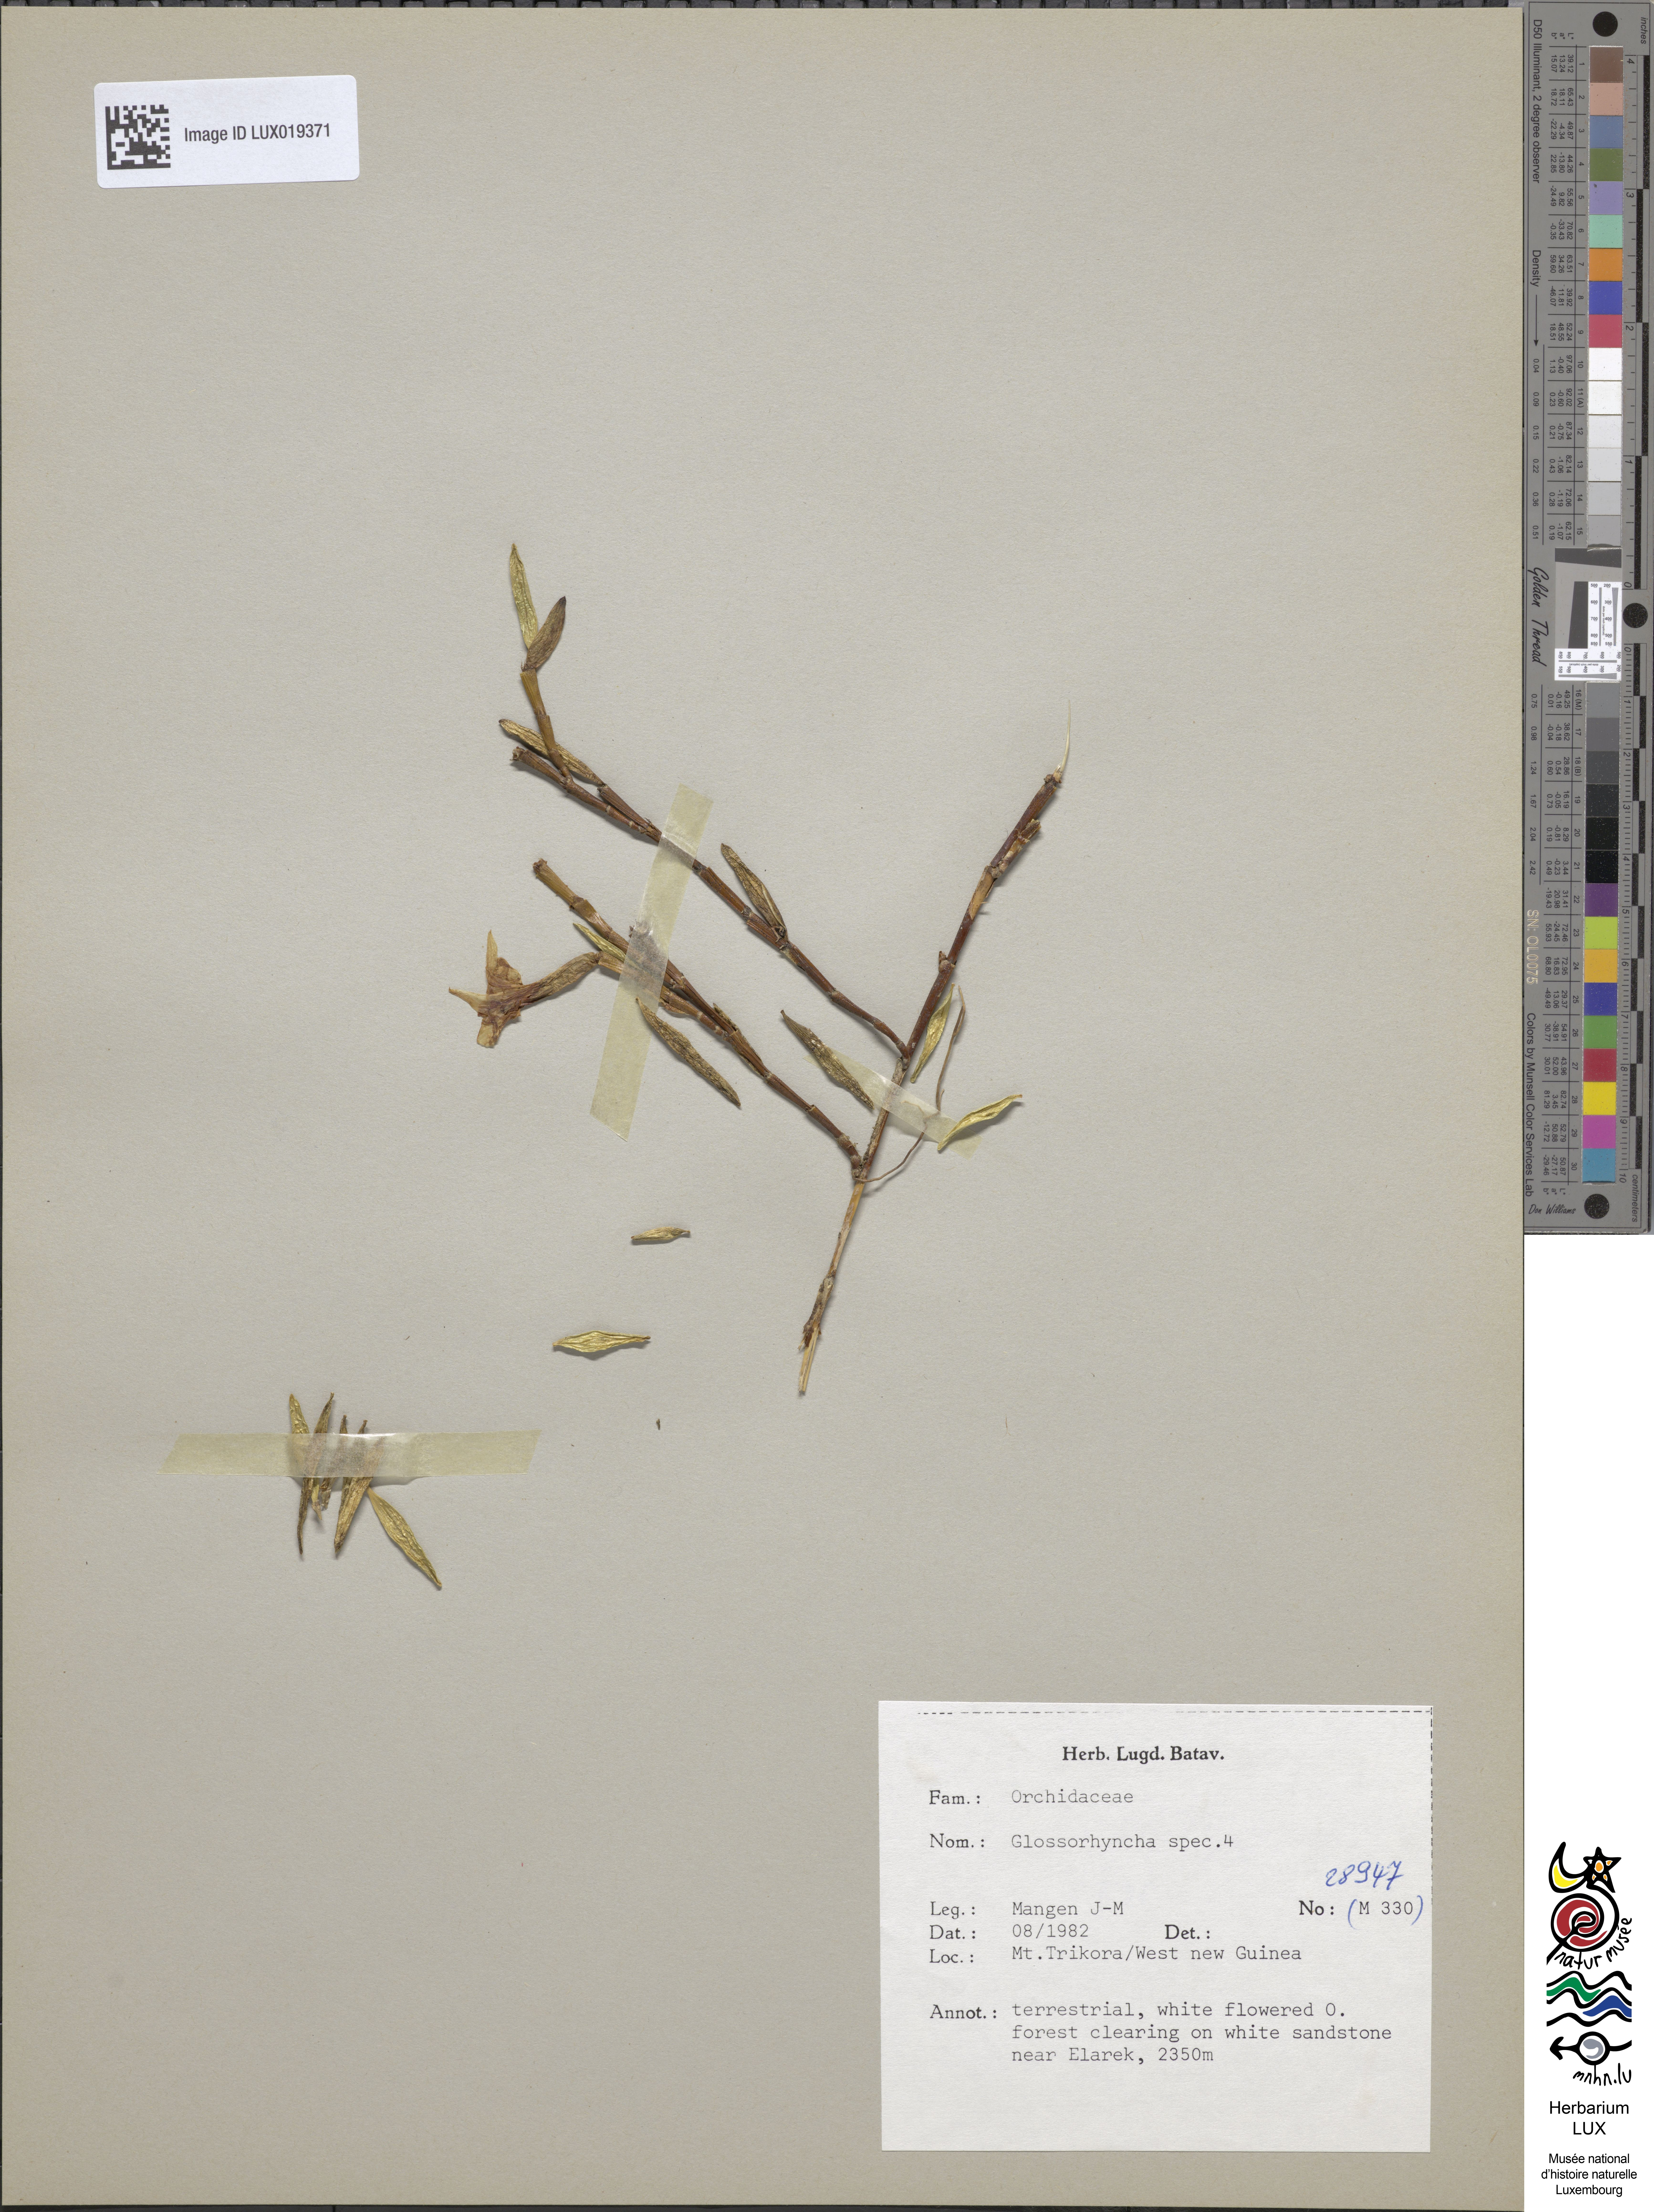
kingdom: Plantae
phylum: Tracheophyta
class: Liliopsida
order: Asparagales
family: Orchidaceae
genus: Glomera
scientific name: Glomera
